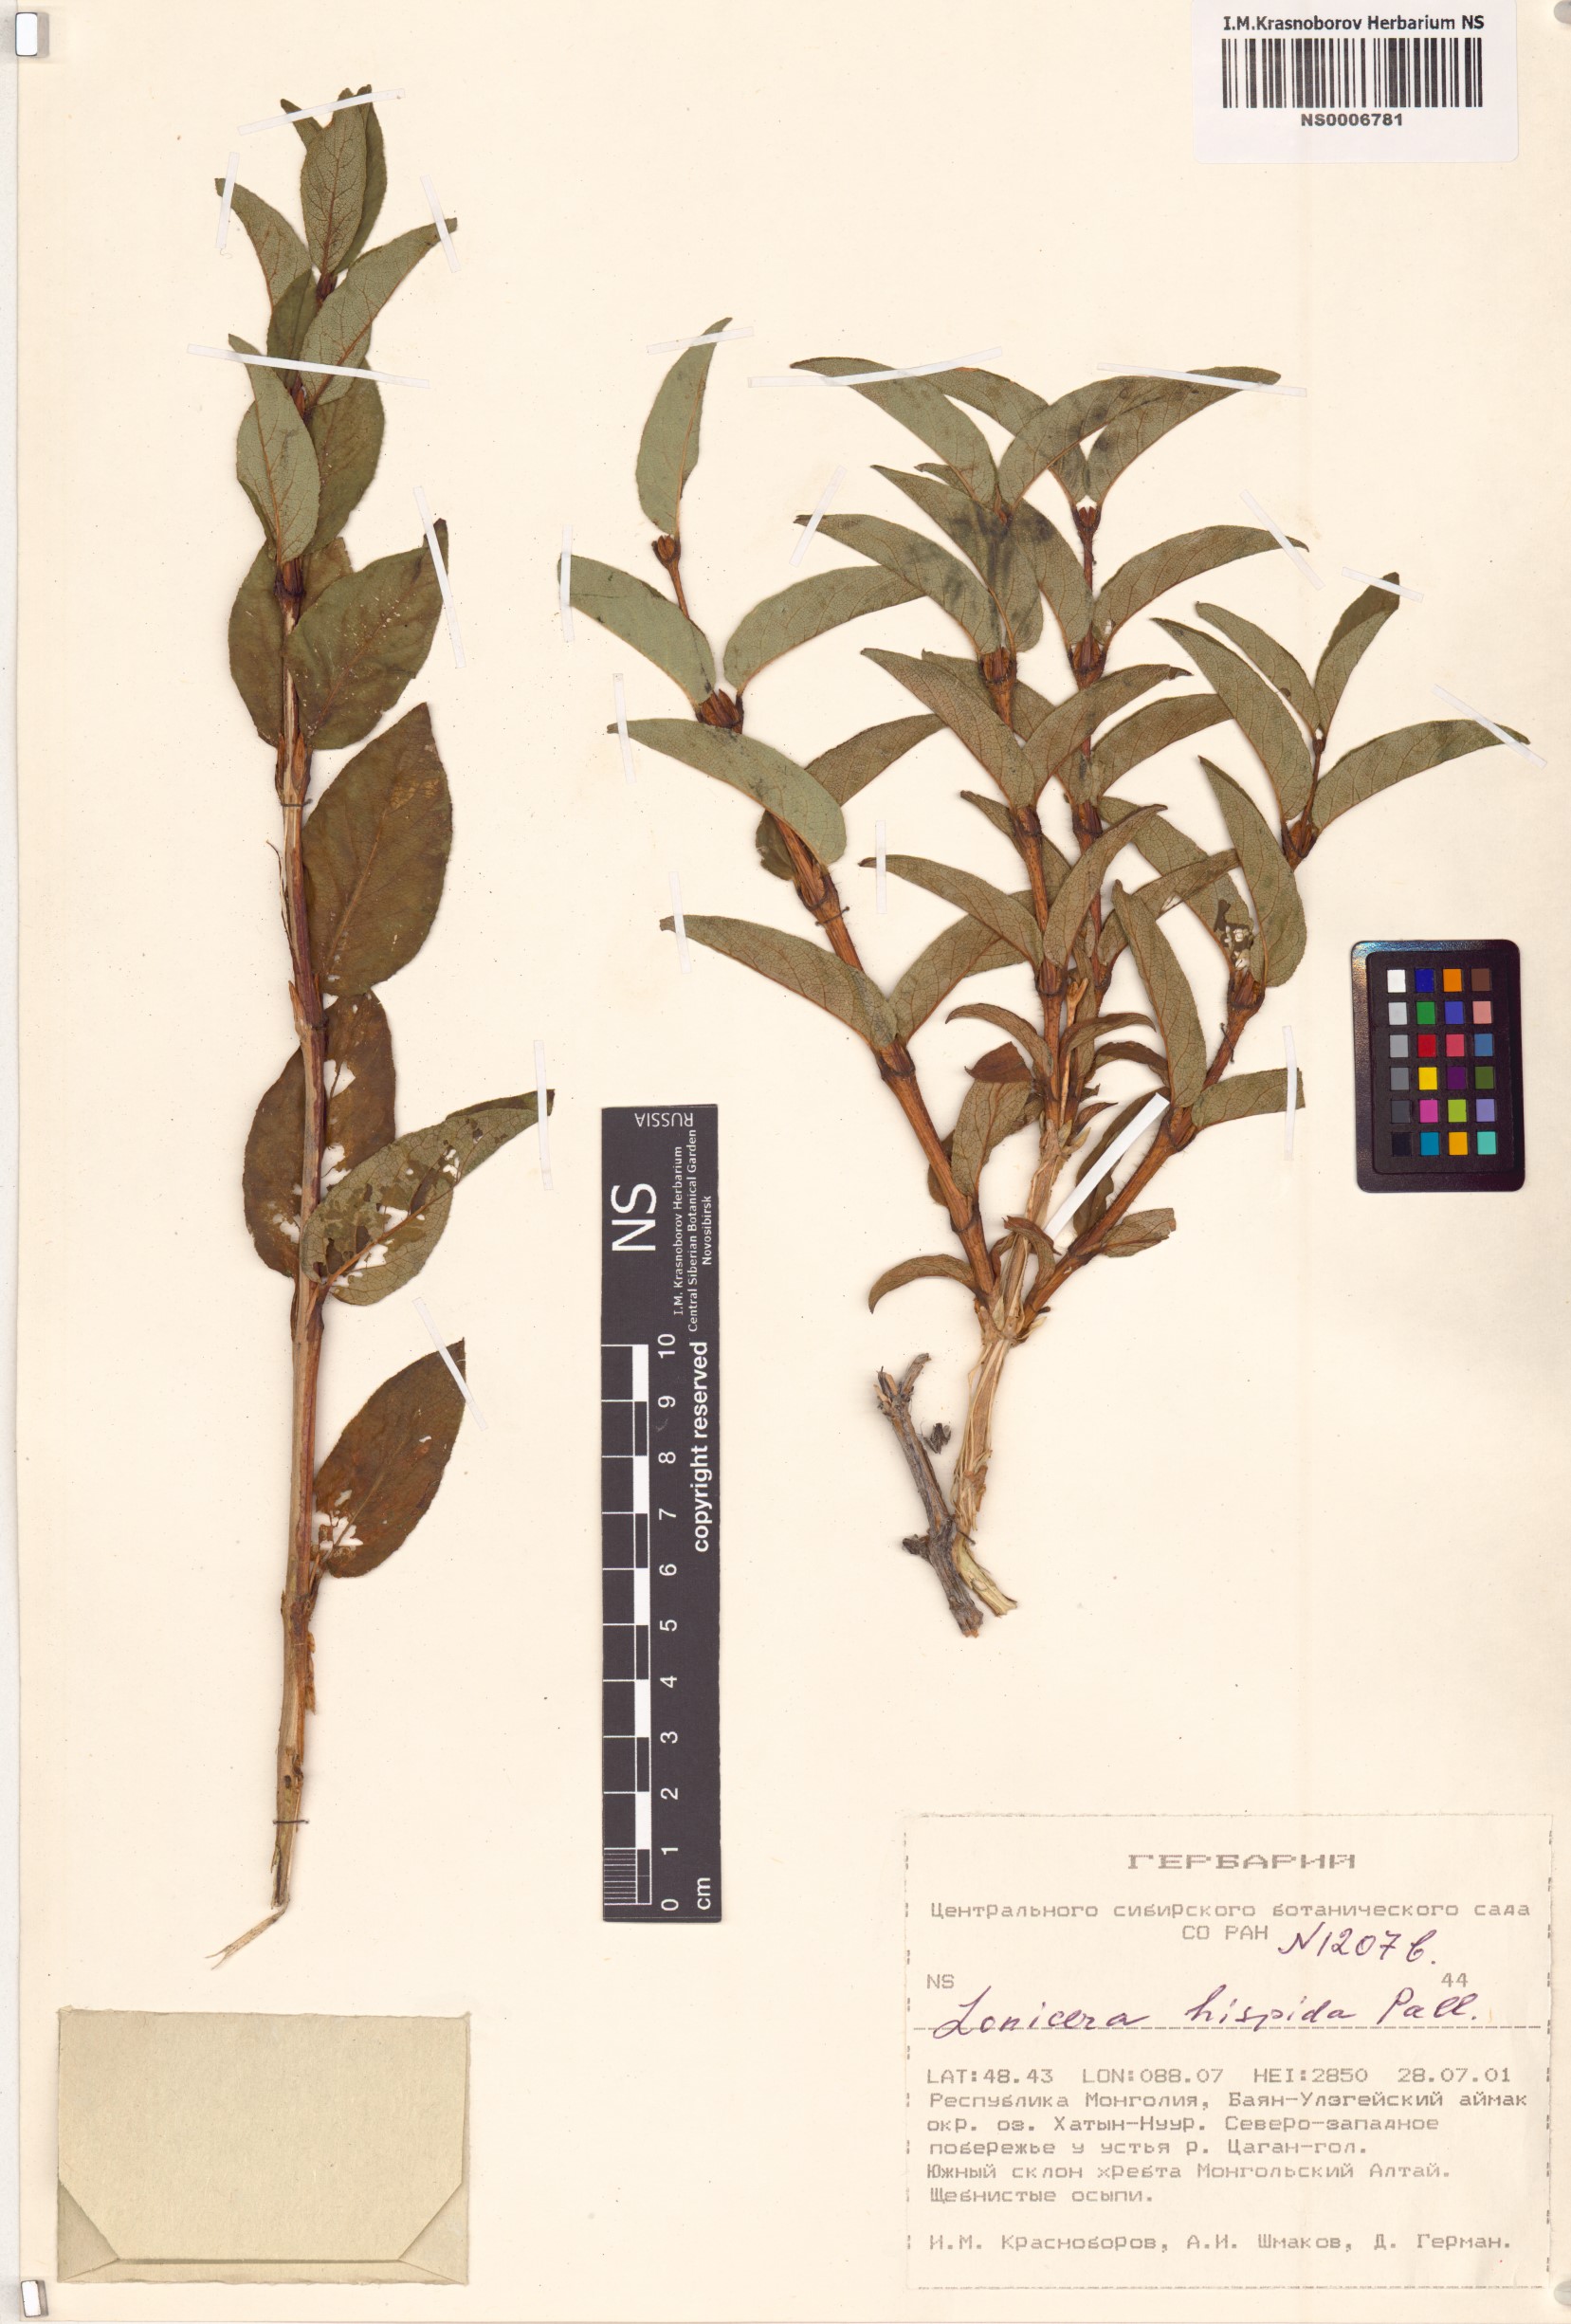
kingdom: Plantae
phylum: Tracheophyta
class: Magnoliopsida
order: Dipsacales
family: Caprifoliaceae
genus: Lonicera
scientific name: Lonicera hispida
